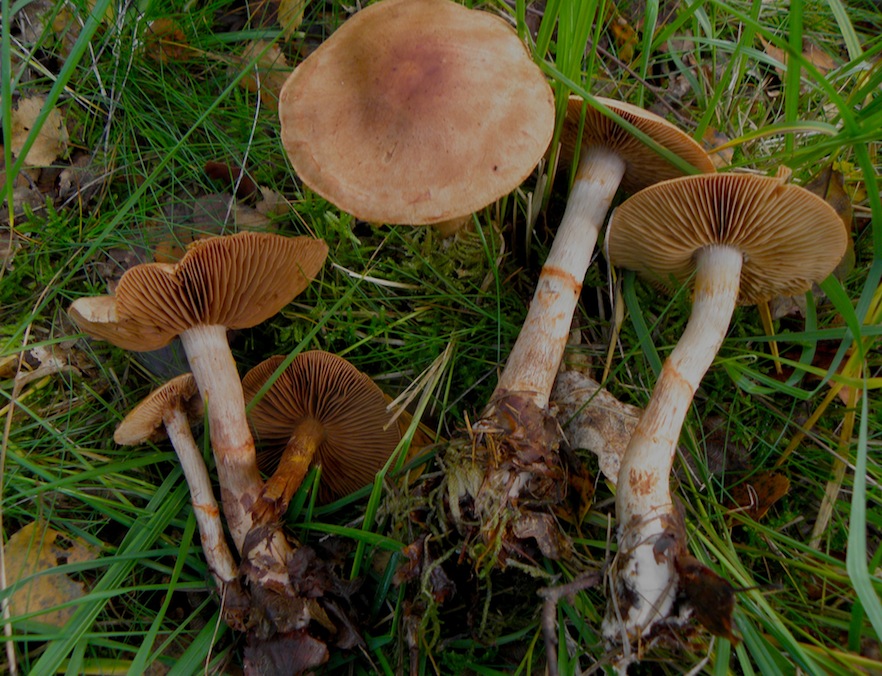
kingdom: Fungi
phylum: Basidiomycota
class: Agaricomycetes
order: Agaricales
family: Cortinariaceae
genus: Cortinarius
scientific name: Cortinarius armillatus
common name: cinnoberbæltet slørhat
